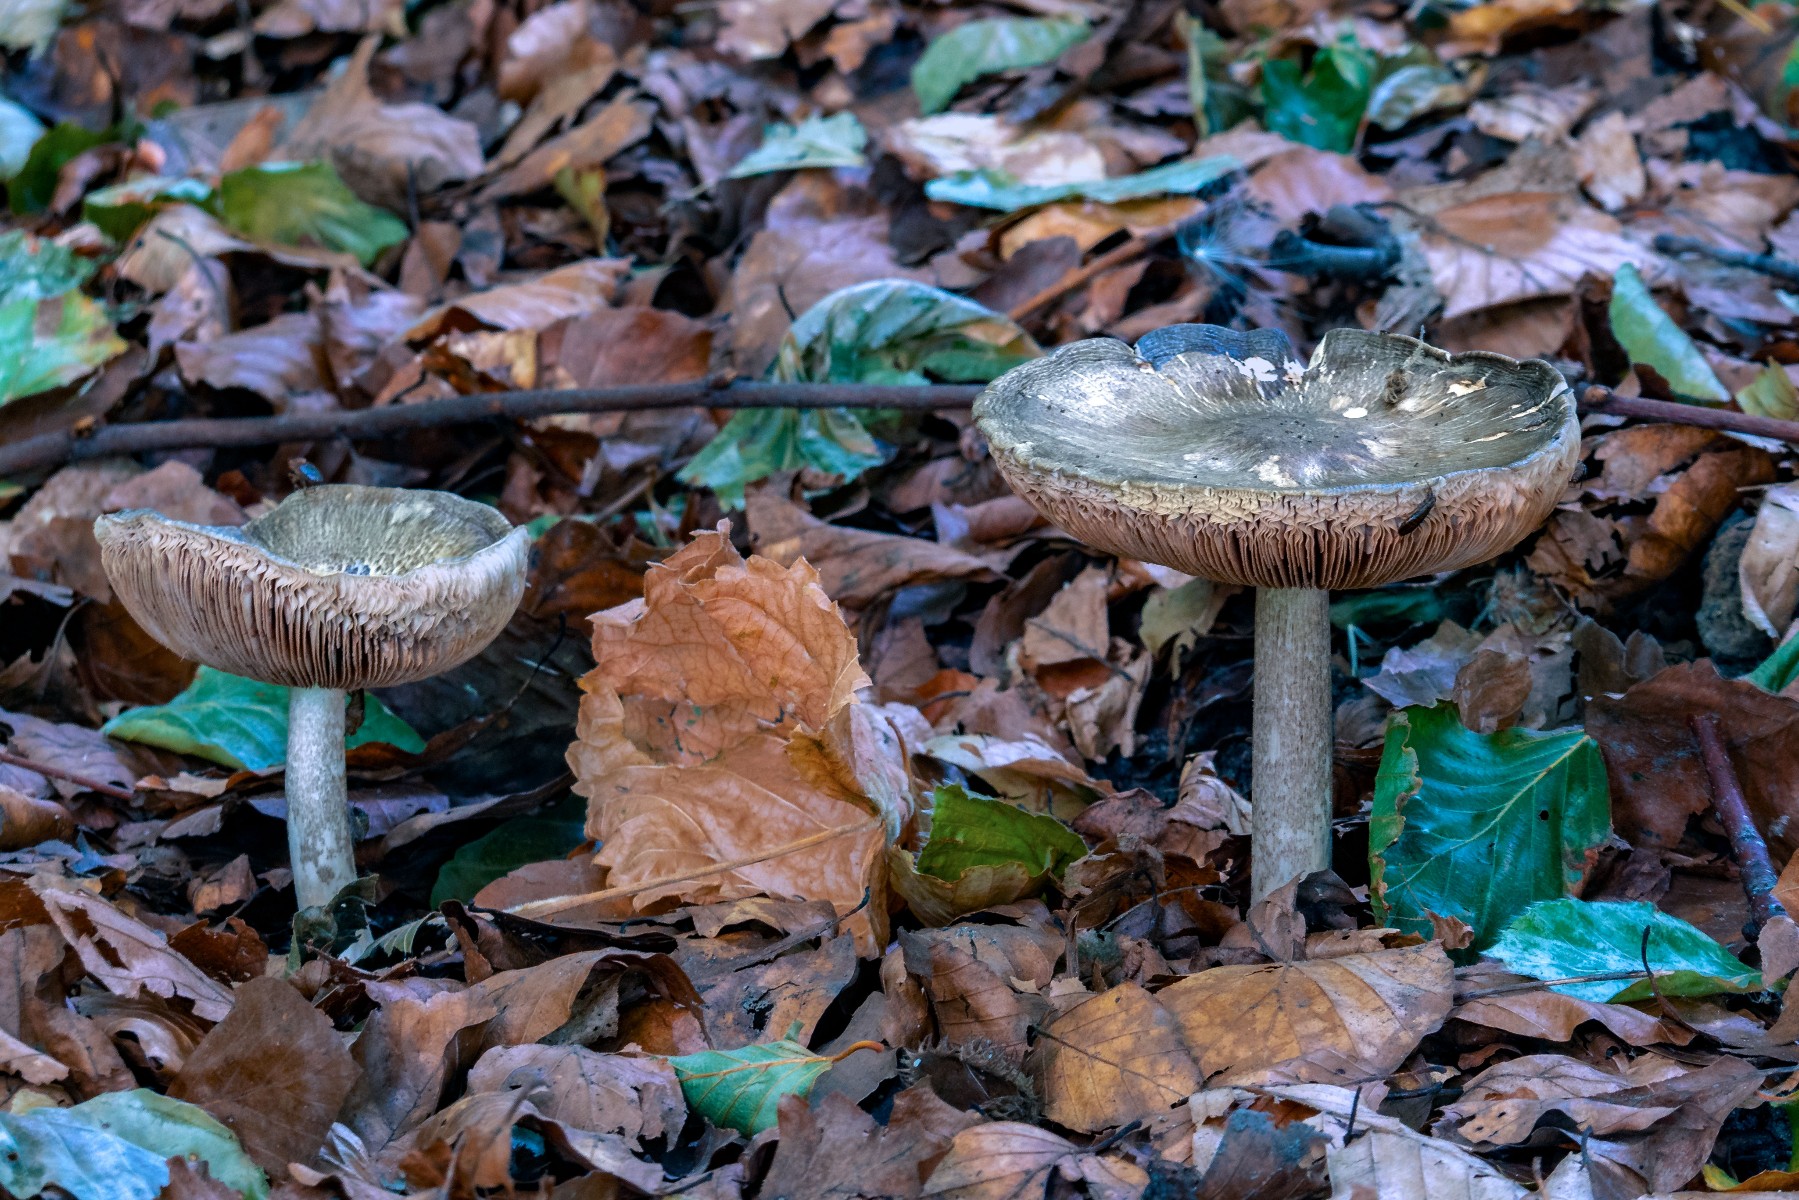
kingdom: Fungi
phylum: Basidiomycota
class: Agaricomycetes
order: Agaricales
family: Pluteaceae
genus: Pluteus
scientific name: Pluteus cervinus
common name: sodfarvet skærmhat
